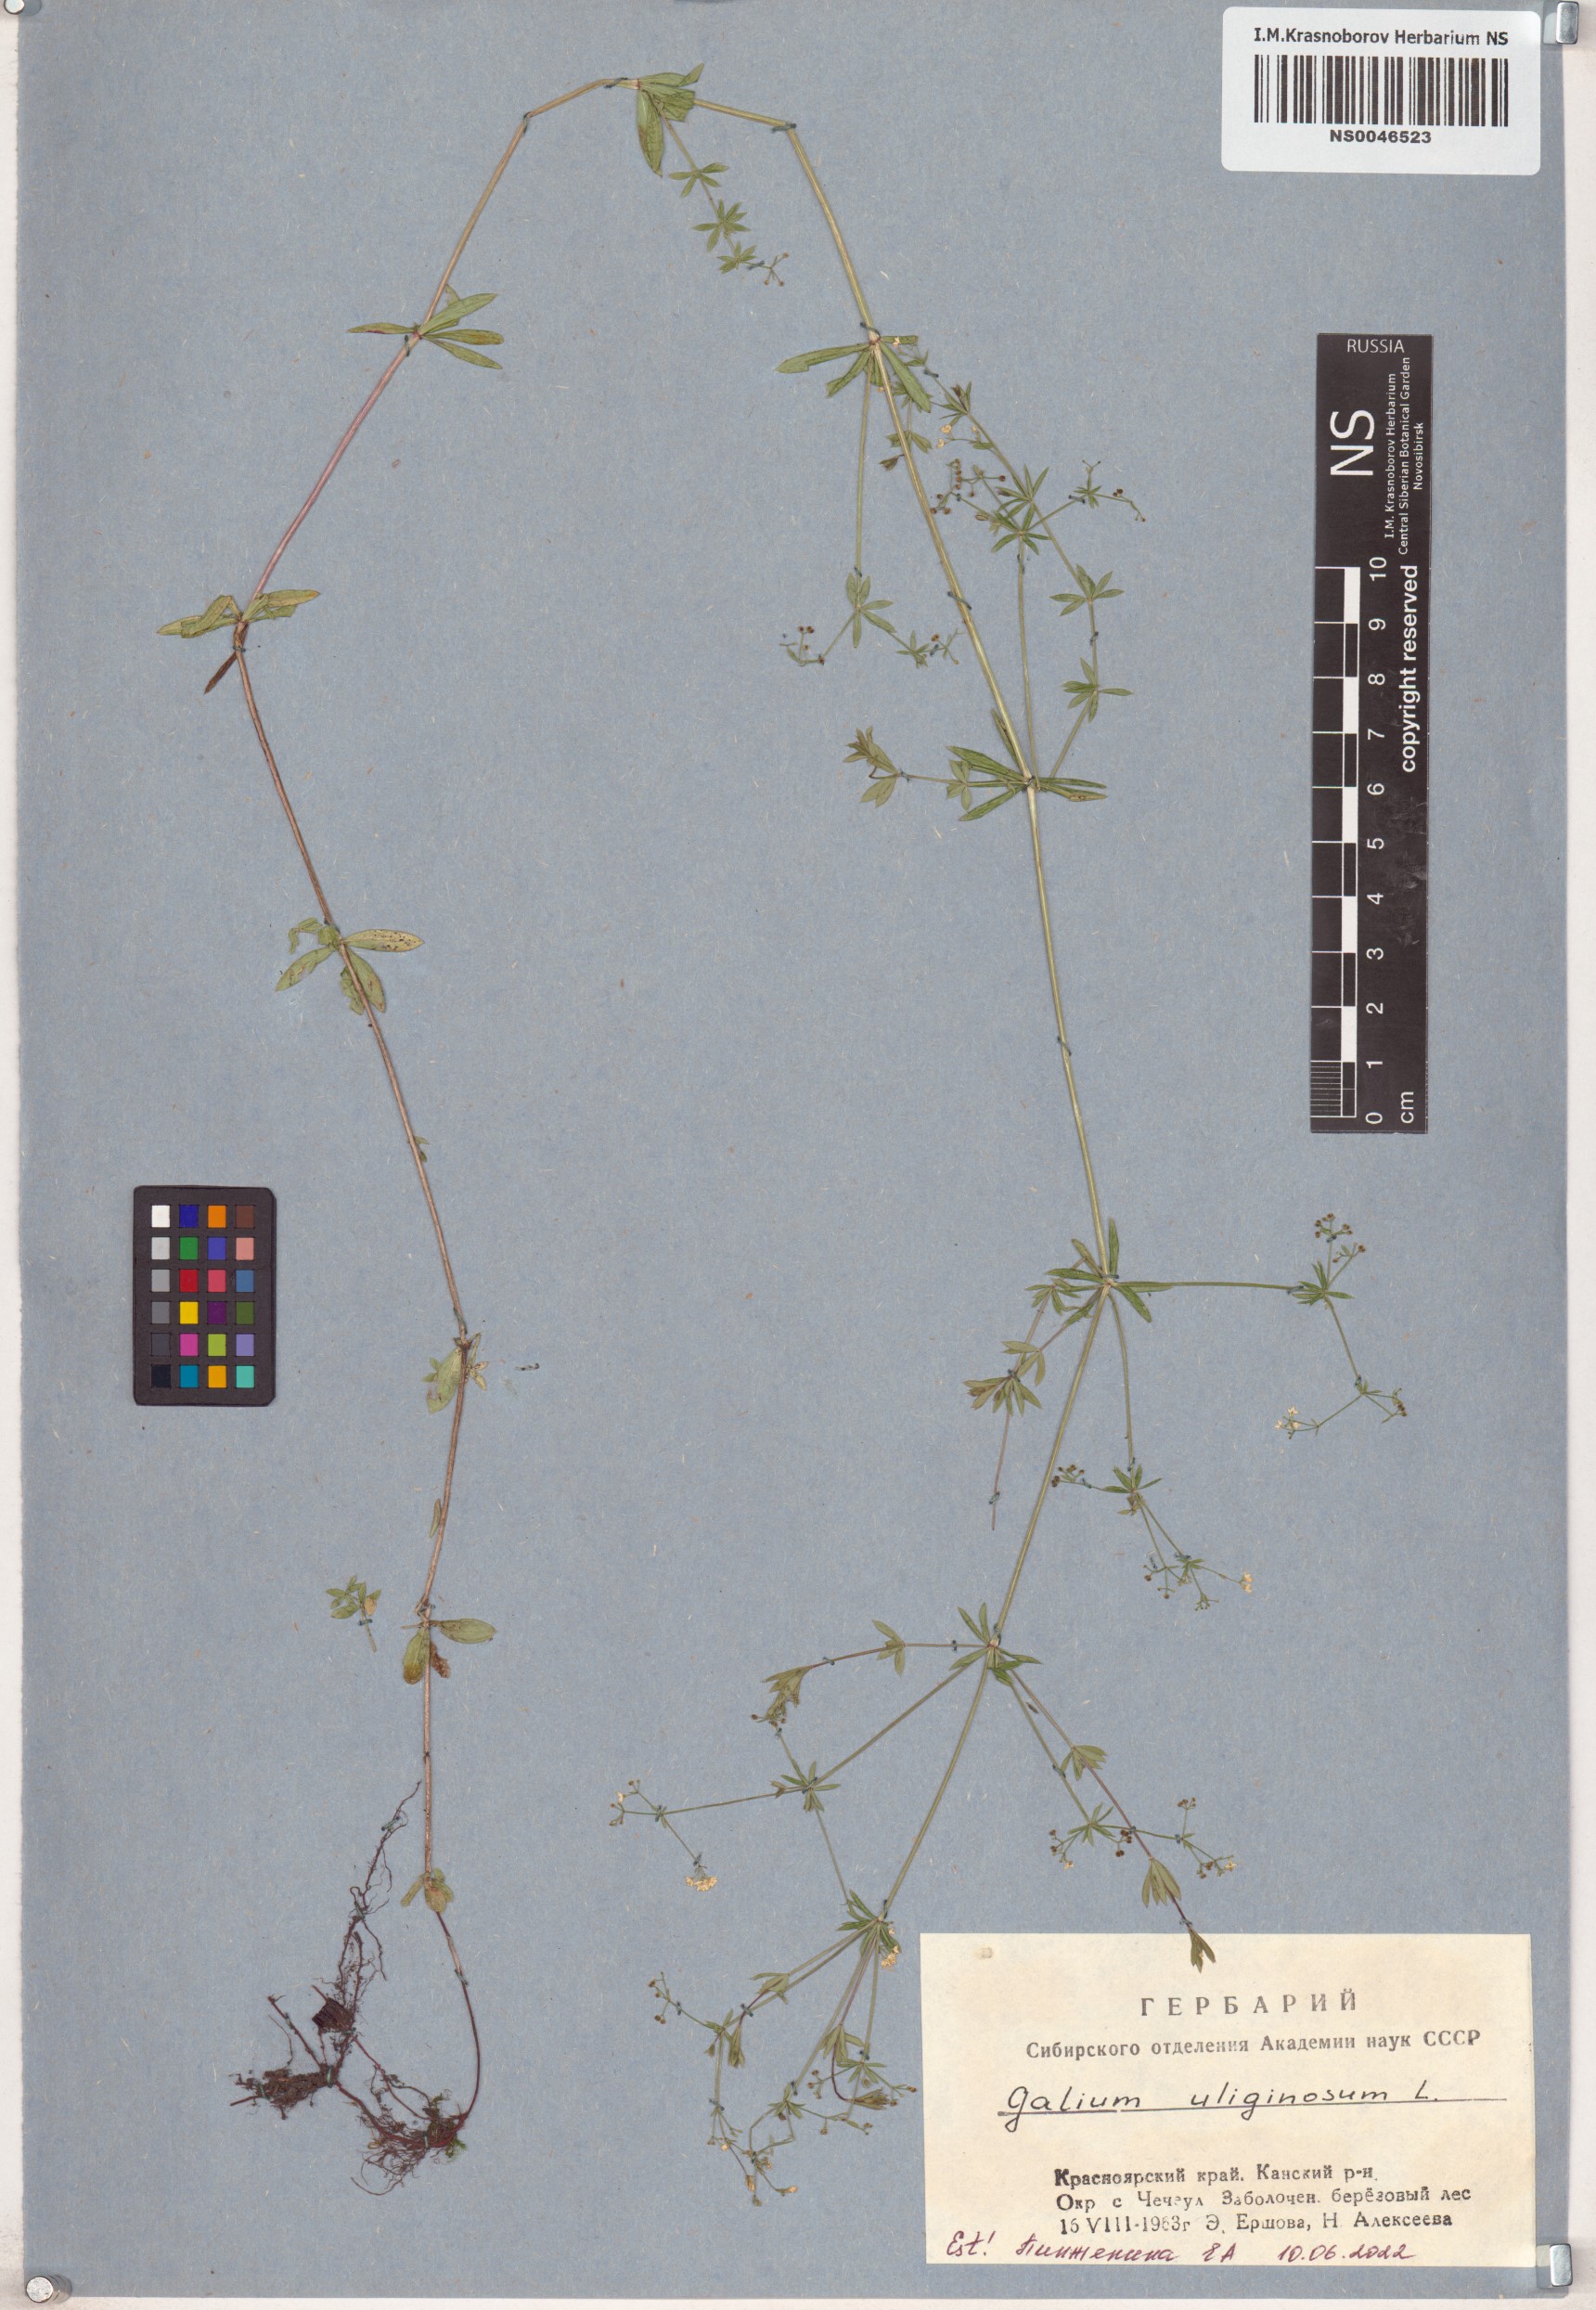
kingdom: Plantae
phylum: Tracheophyta
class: Magnoliopsida
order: Gentianales
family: Rubiaceae
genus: Galium
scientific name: Galium uliginosum
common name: Fen bedstraw
